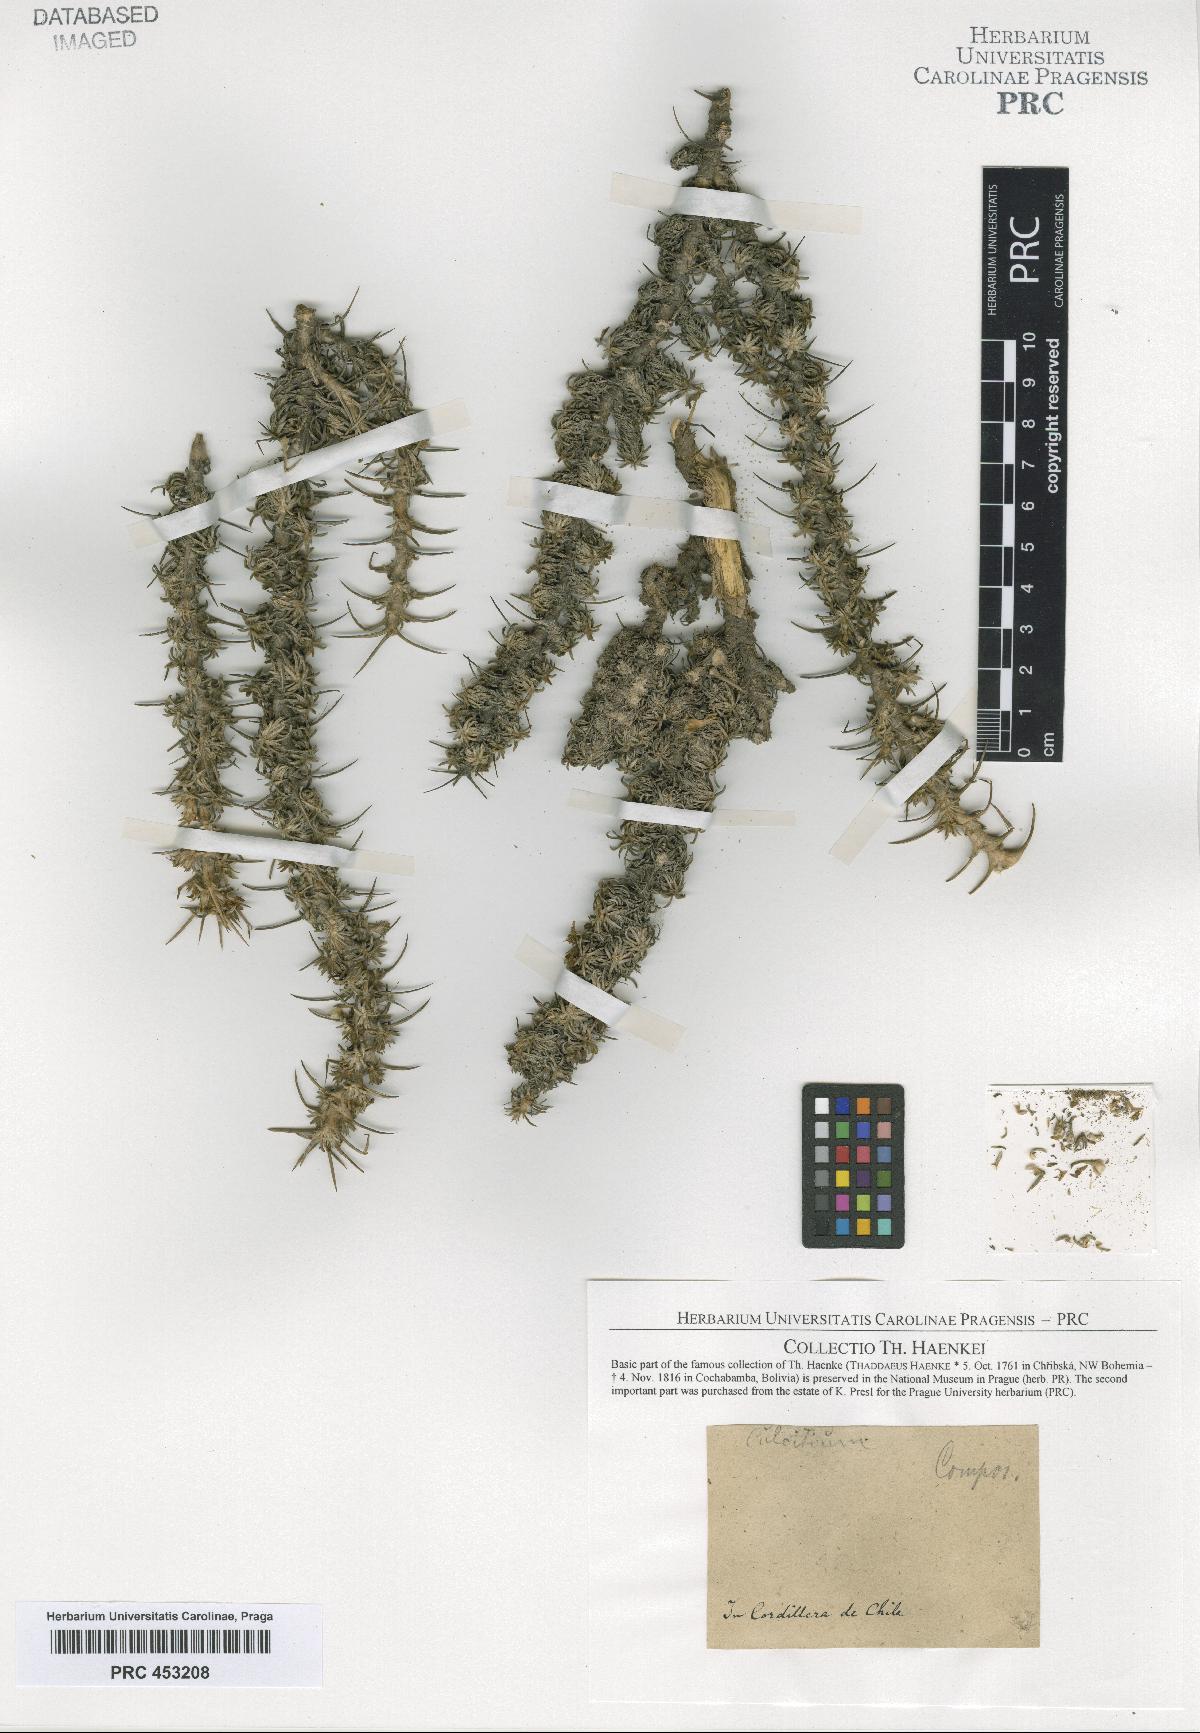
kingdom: Plantae
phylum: Tracheophyta
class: Magnoliopsida
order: Asterales
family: Asteraceae
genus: Culcitium
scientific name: Culcitium
